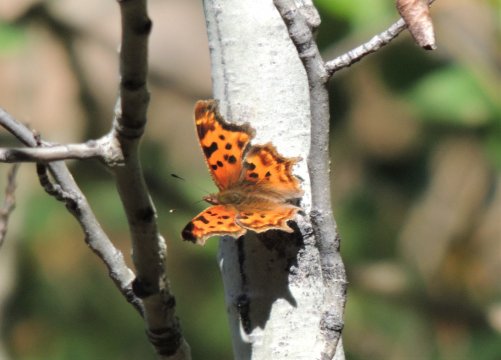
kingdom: Animalia
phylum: Arthropoda
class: Insecta
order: Lepidoptera
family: Nymphalidae
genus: Polygonia
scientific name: Polygonia satyrus
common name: Satyr Comma
